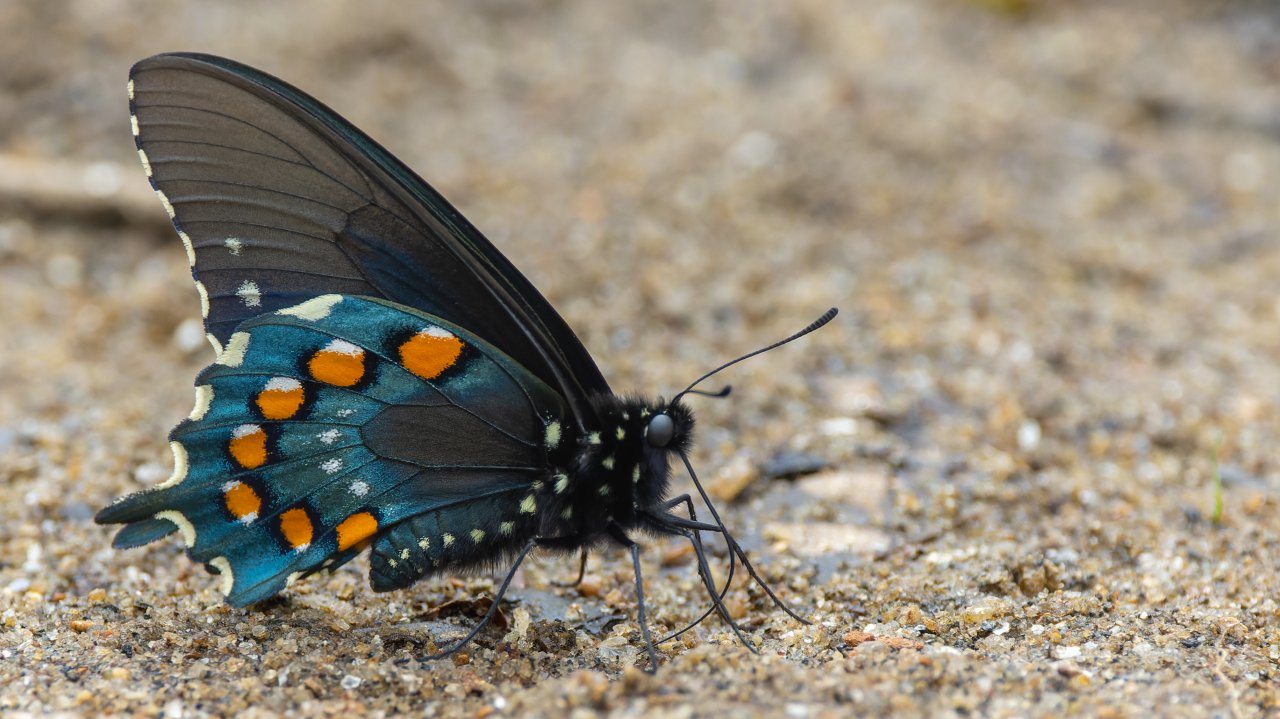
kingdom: Animalia
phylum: Arthropoda
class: Insecta
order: Lepidoptera
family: Papilionidae
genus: Battus
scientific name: Battus philenor
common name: Pipevine Swallowtail
